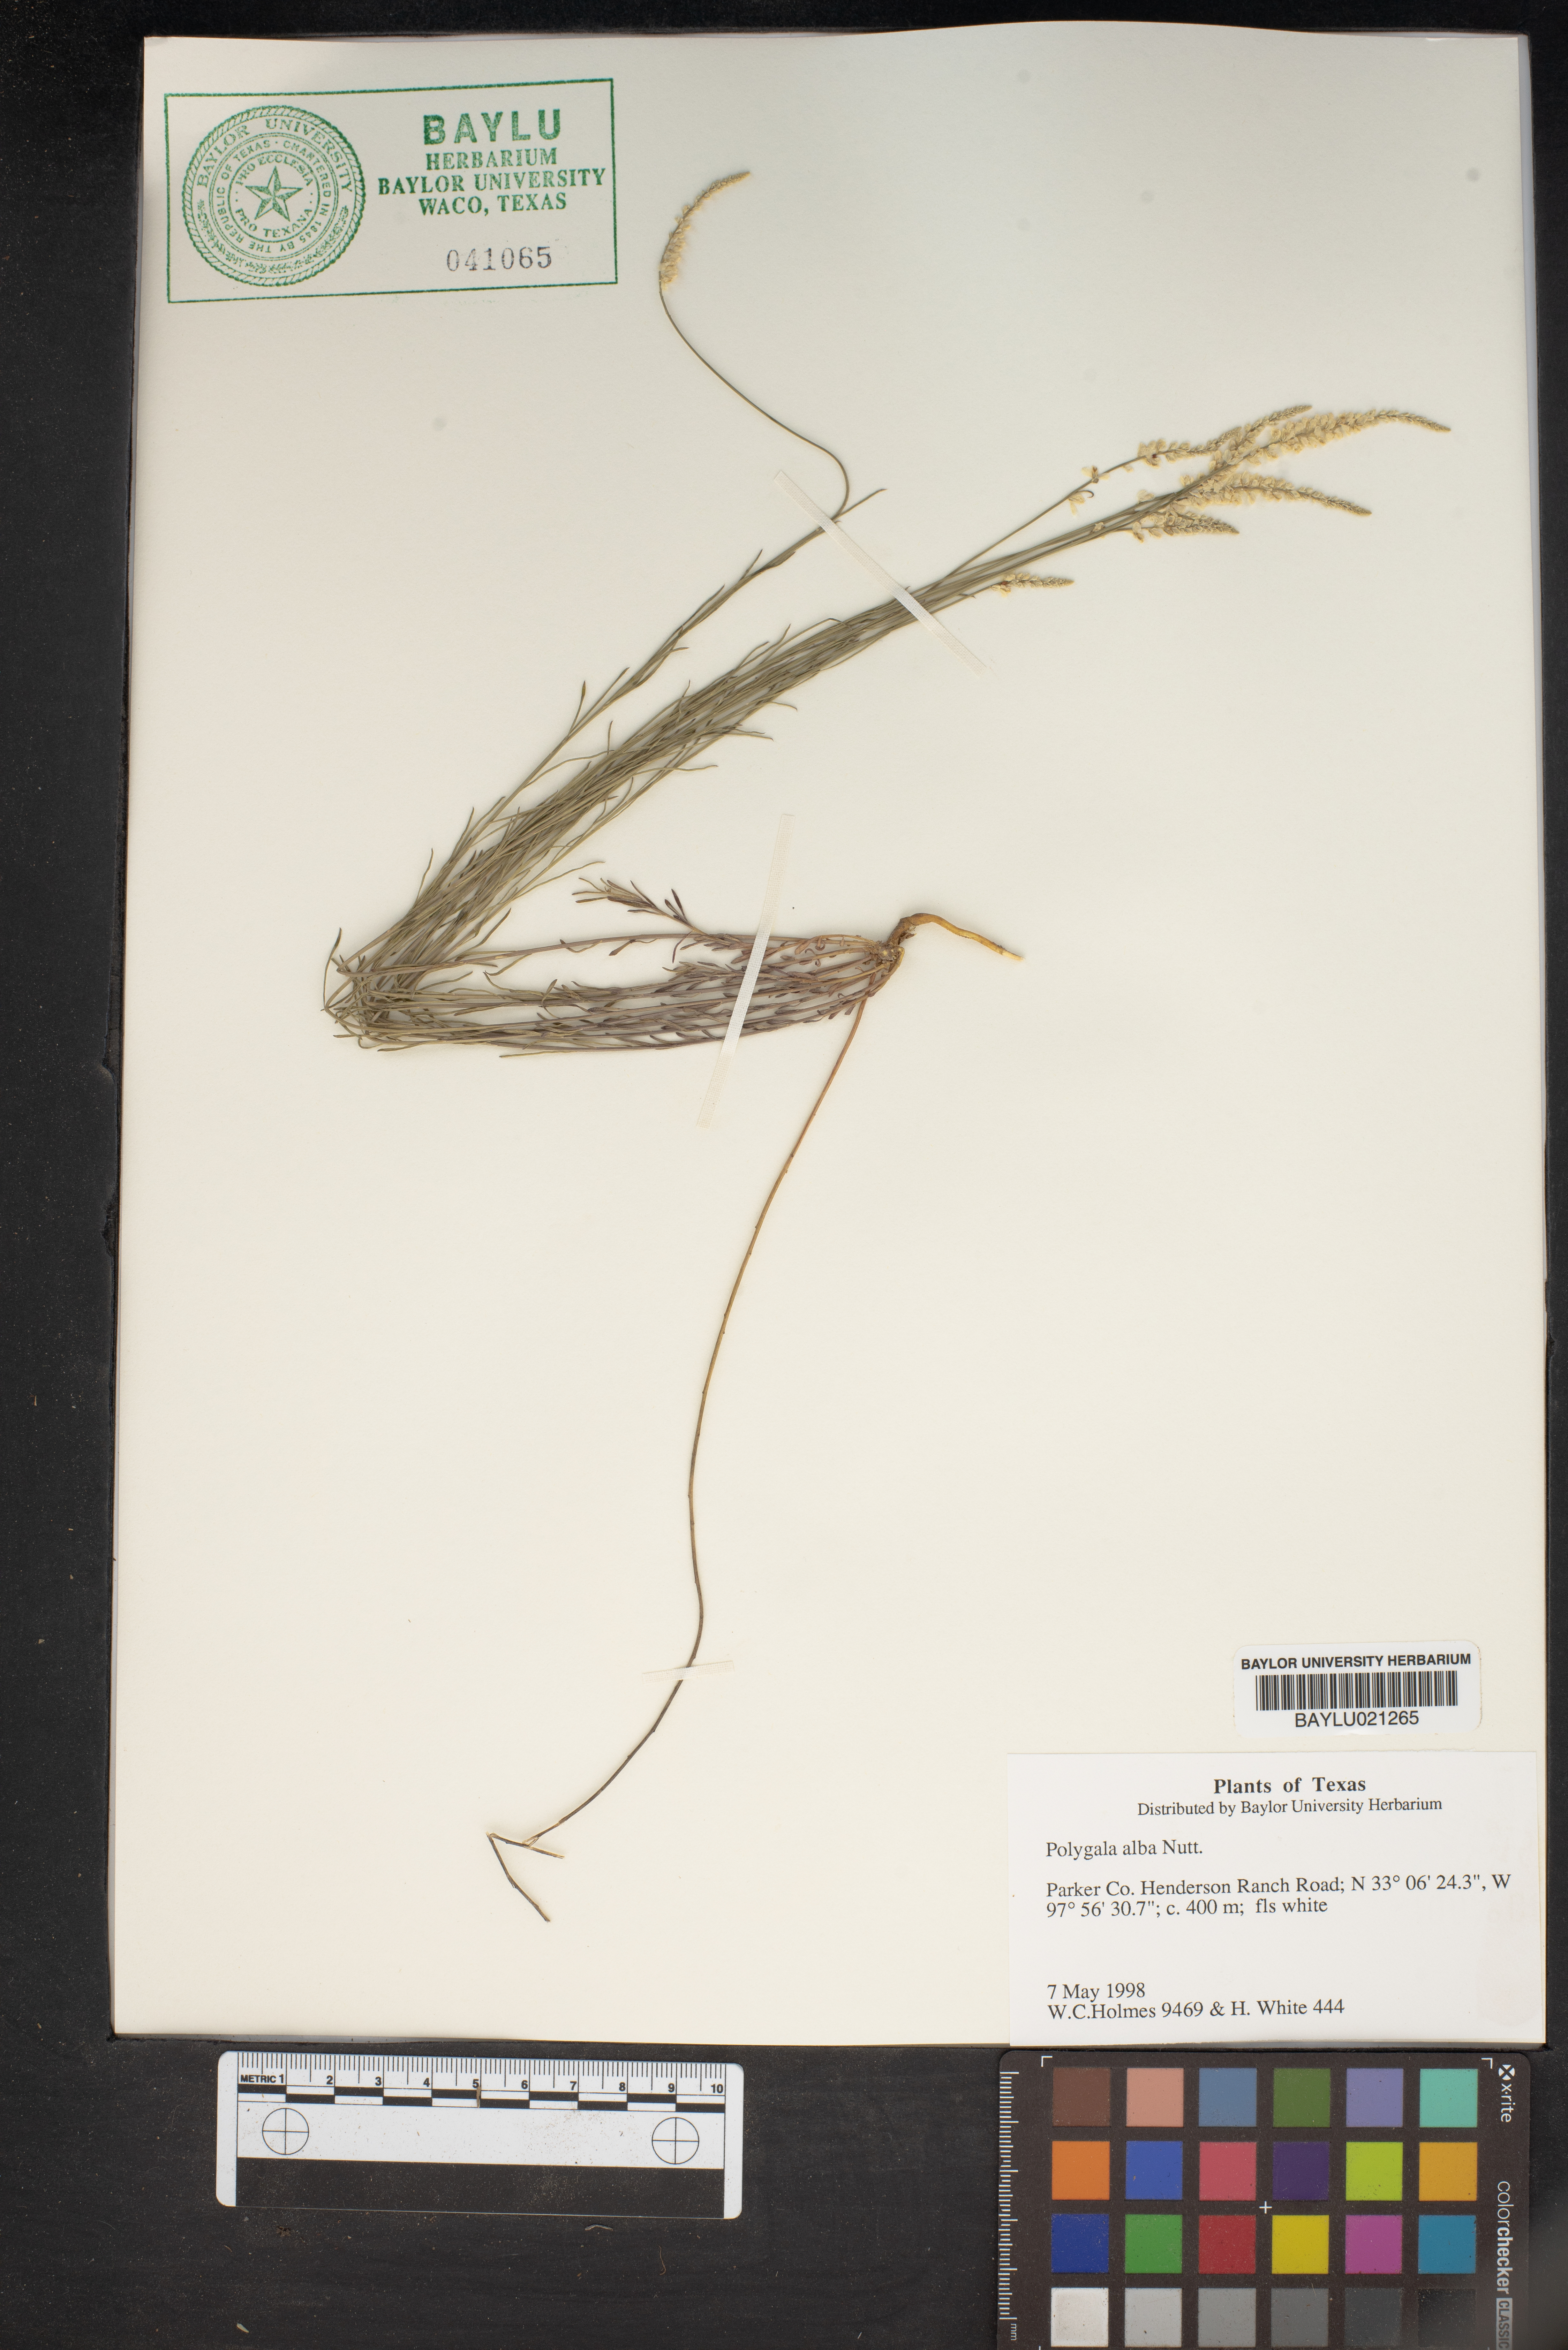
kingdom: Plantae
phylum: Tracheophyta
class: Magnoliopsida
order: Fabales
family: Polygalaceae
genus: Polygala
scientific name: Polygala alba
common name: White milkwort
